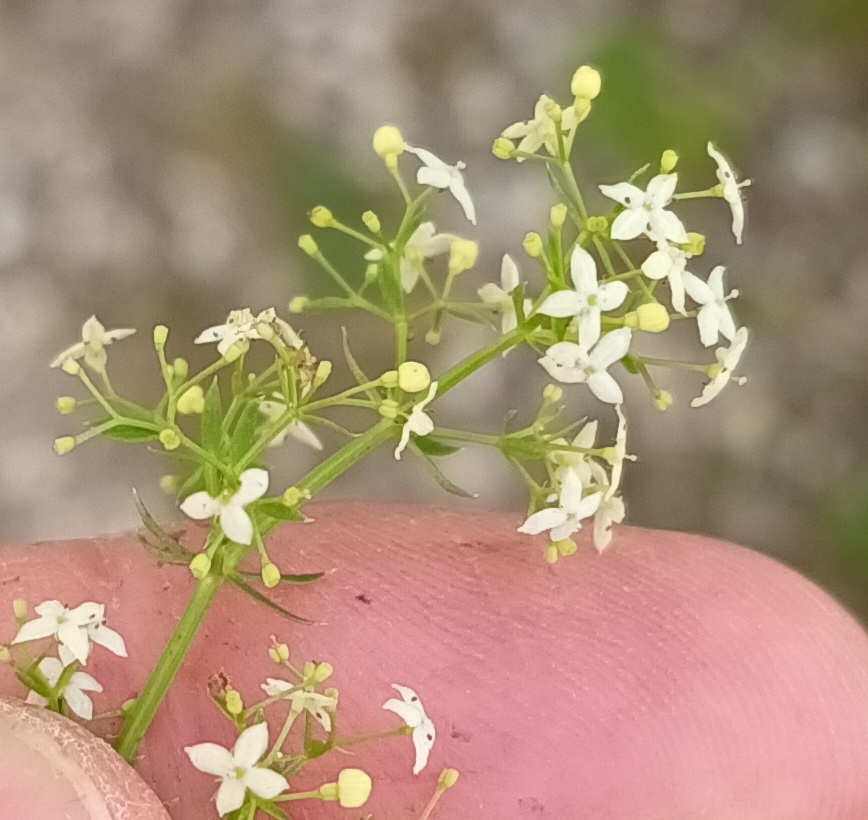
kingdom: Plantae
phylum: Tracheophyta
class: Magnoliopsida
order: Gentianales
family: Rubiaceae
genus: Galium
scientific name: Galium mollugo
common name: Hvid snerre
